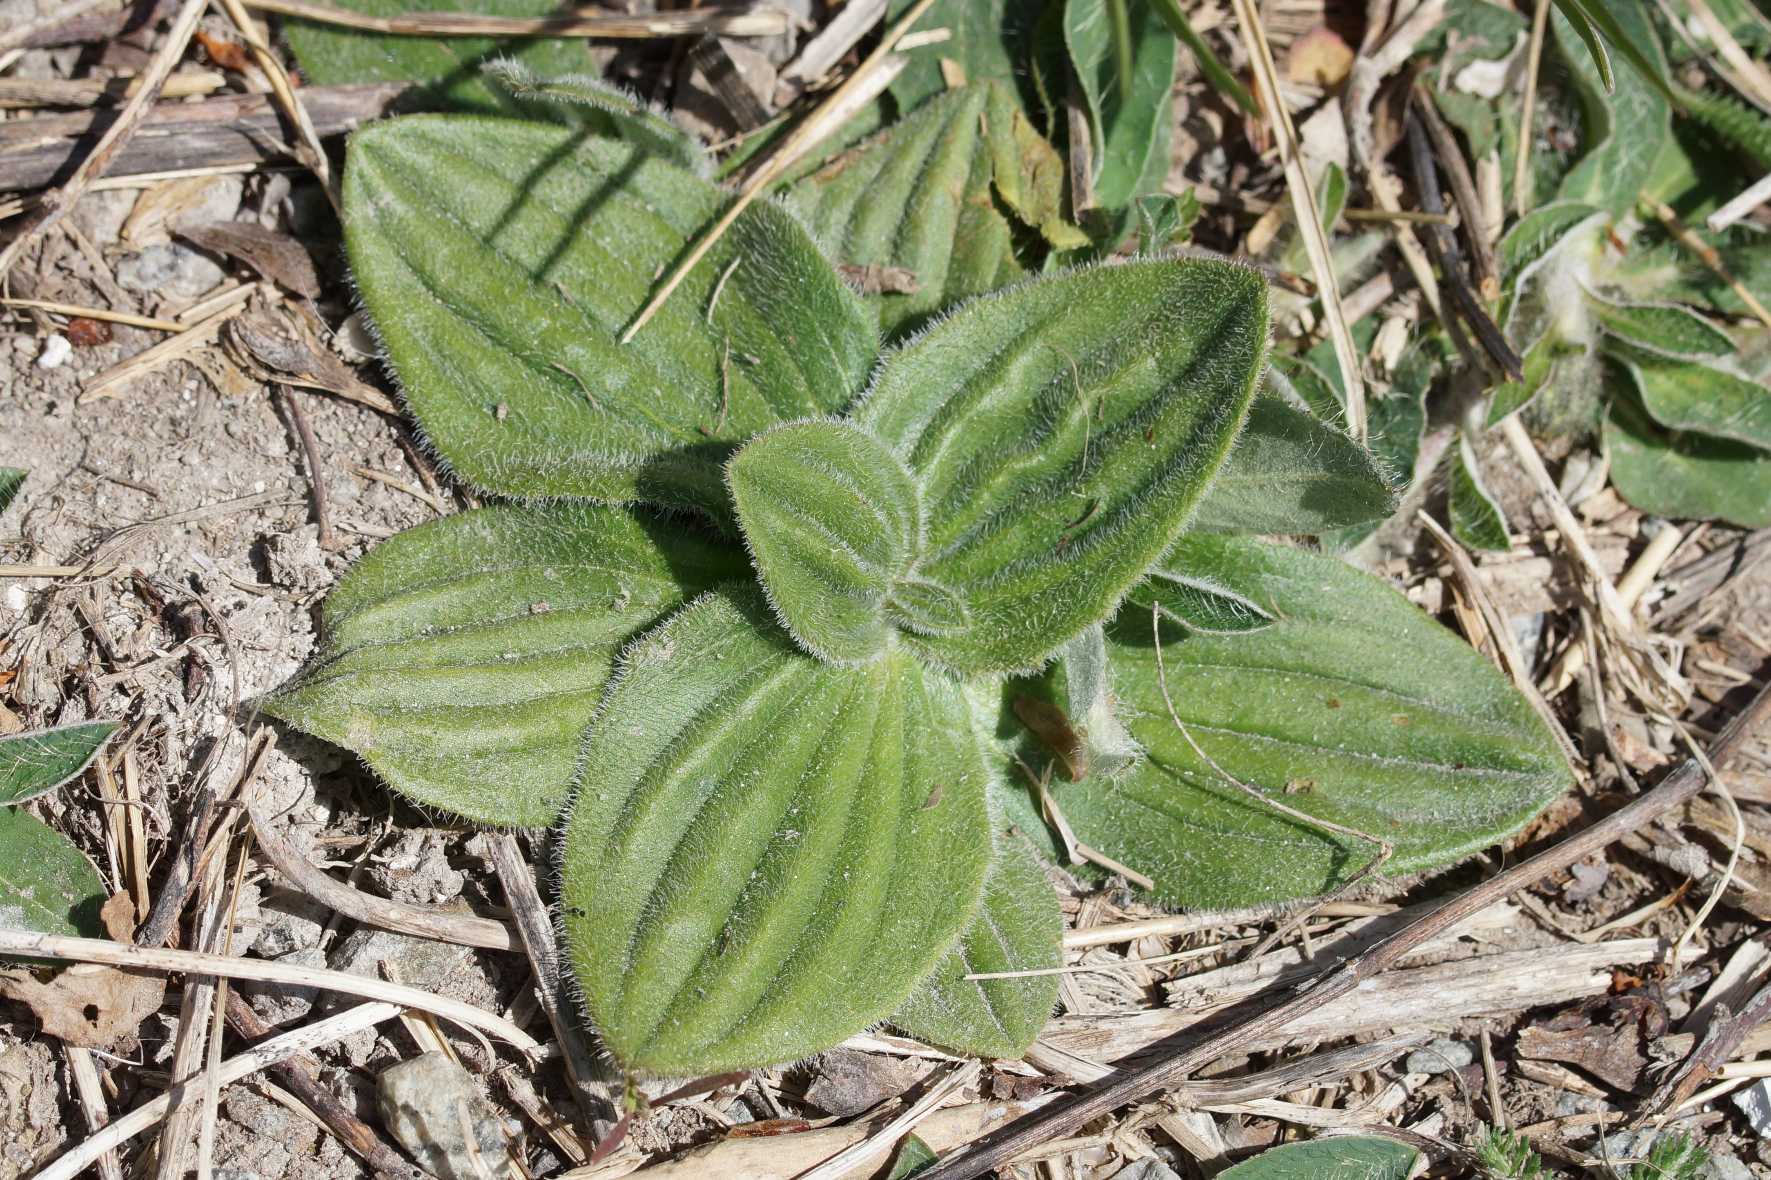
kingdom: Plantae
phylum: Tracheophyta
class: Magnoliopsida
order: Lamiales
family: Plantaginaceae
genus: Plantago
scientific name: Plantago media
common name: Dunet vejbred
